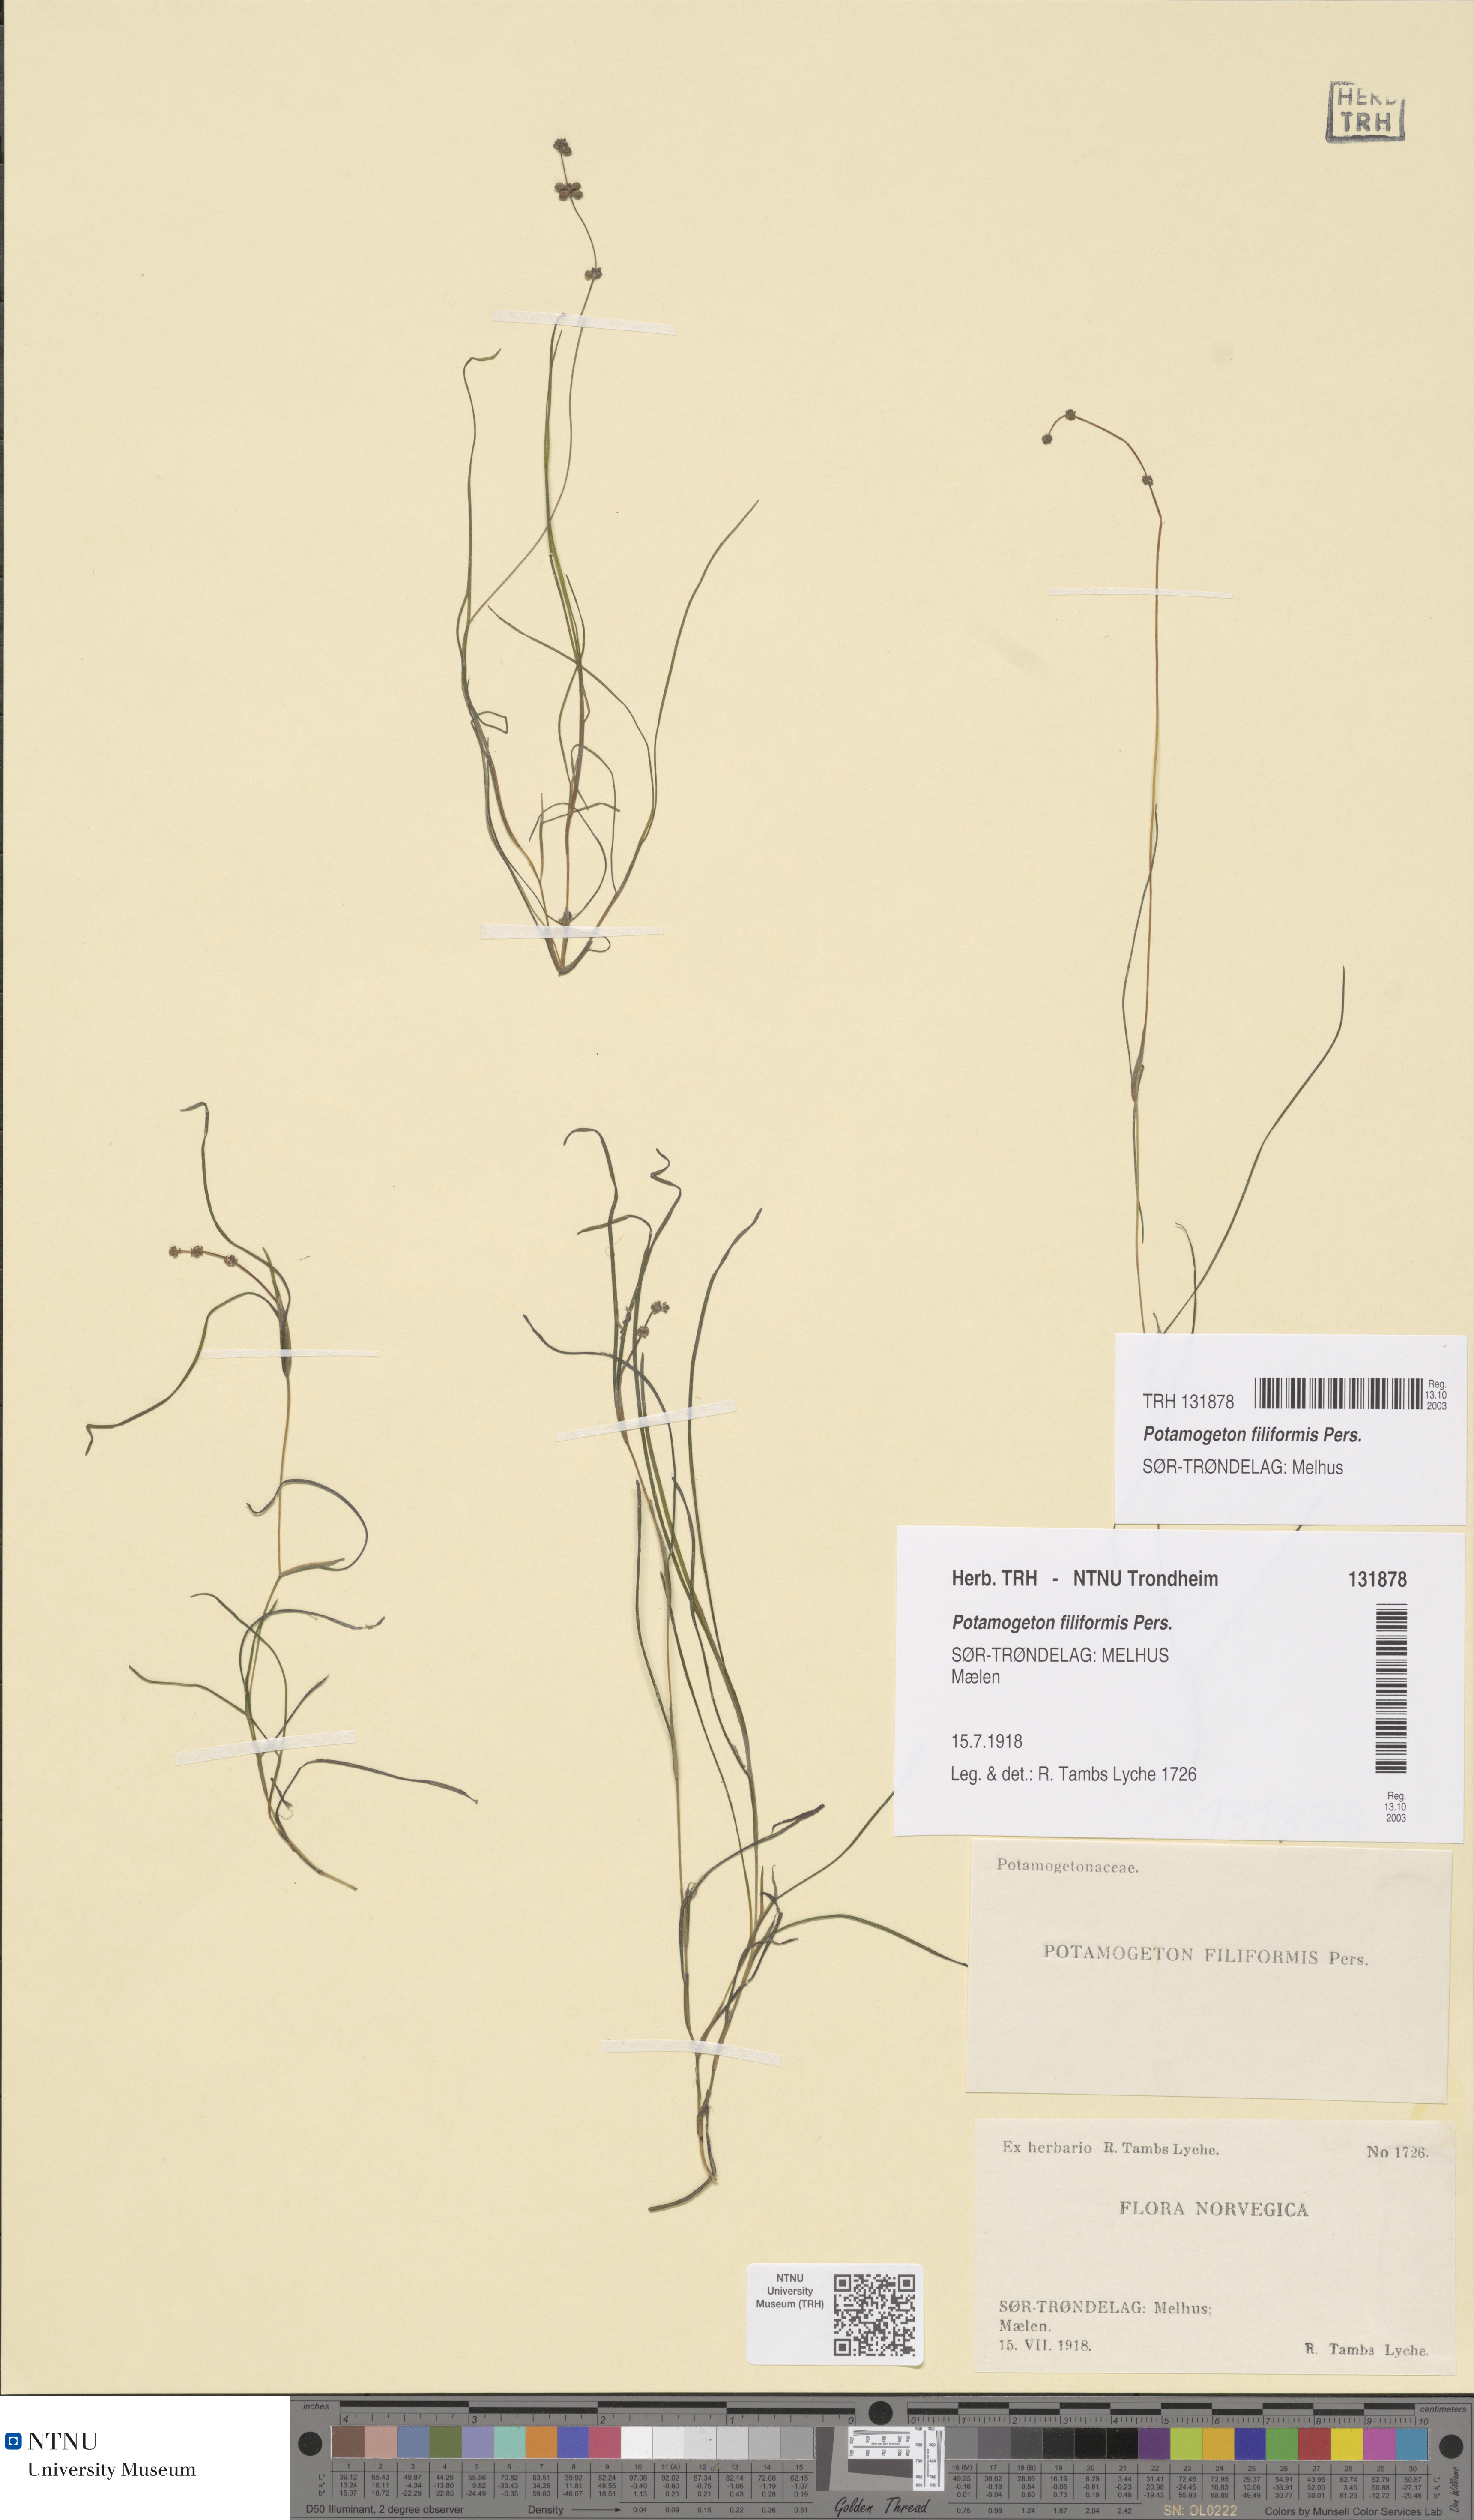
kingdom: Plantae
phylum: Tracheophyta
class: Liliopsida
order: Alismatales
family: Potamogetonaceae
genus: Stuckenia
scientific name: Stuckenia filiformis
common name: Alpine thread-leaved pondweed
